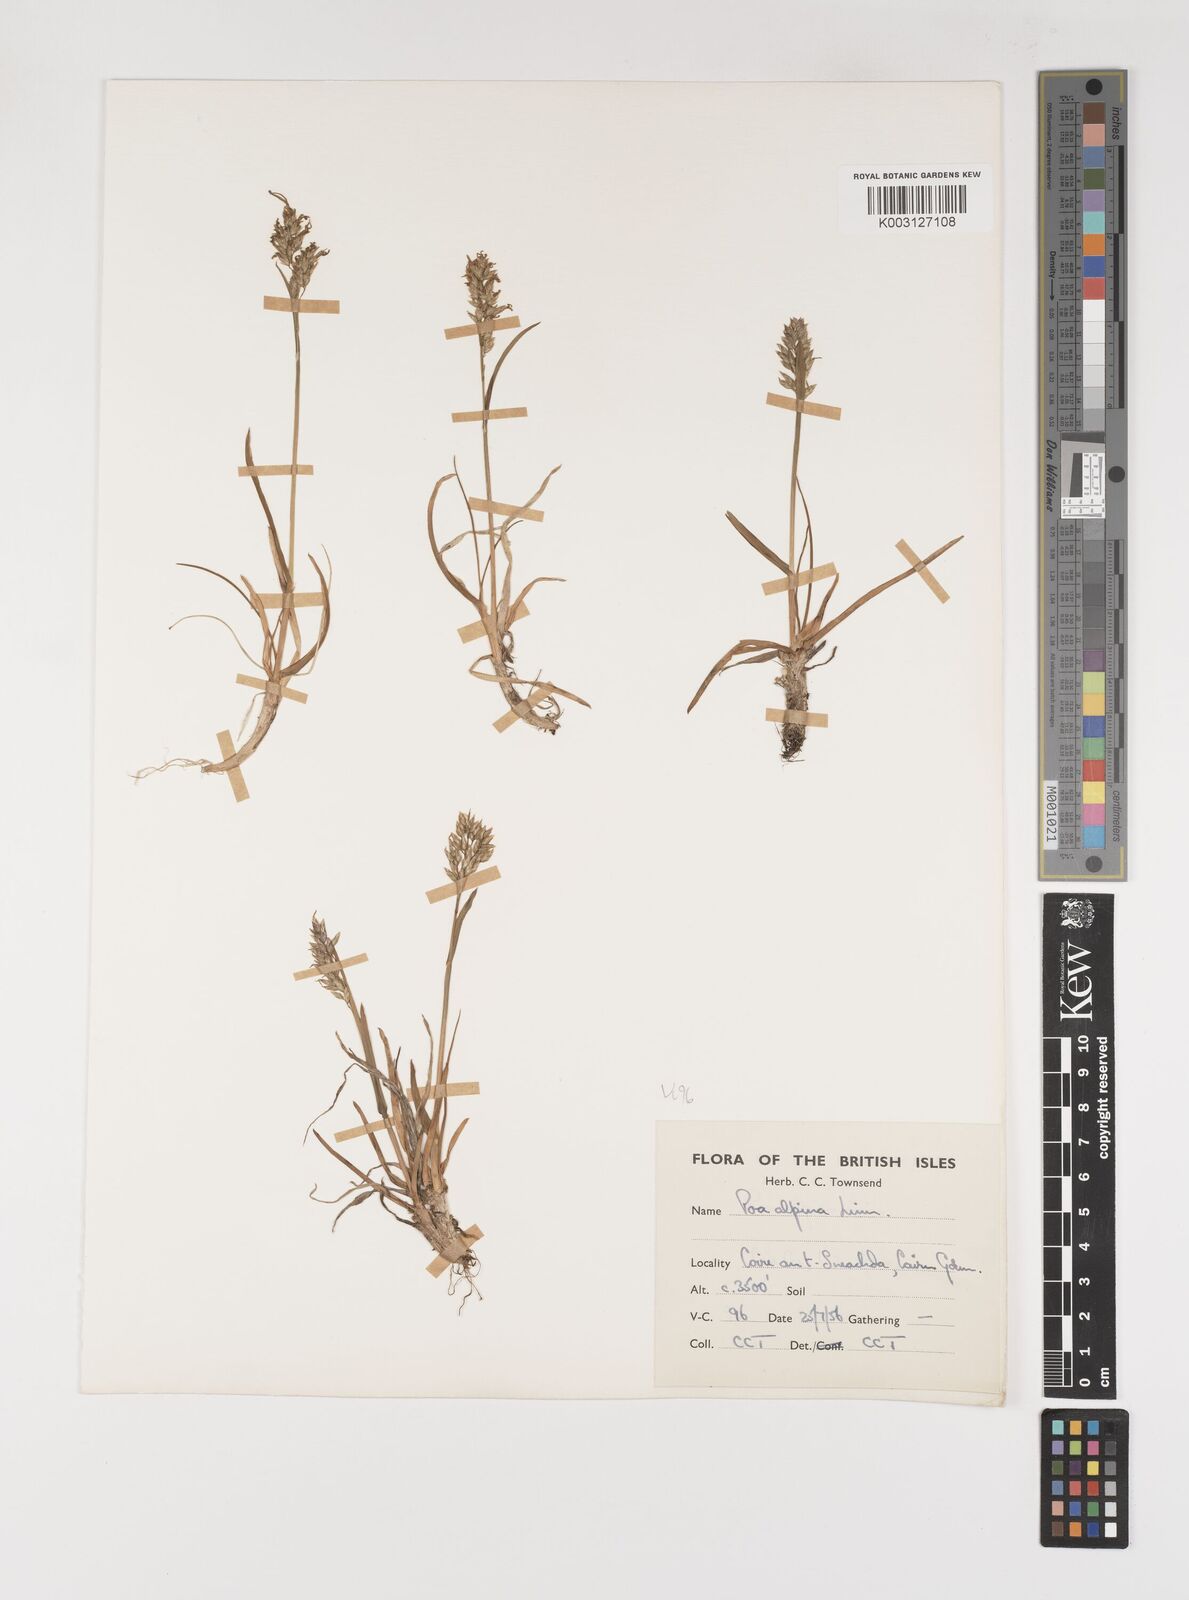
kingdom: Plantae
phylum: Tracheophyta
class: Liliopsida
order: Poales
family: Poaceae
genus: Poa
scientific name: Poa alpina
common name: Alpine bluegrass
